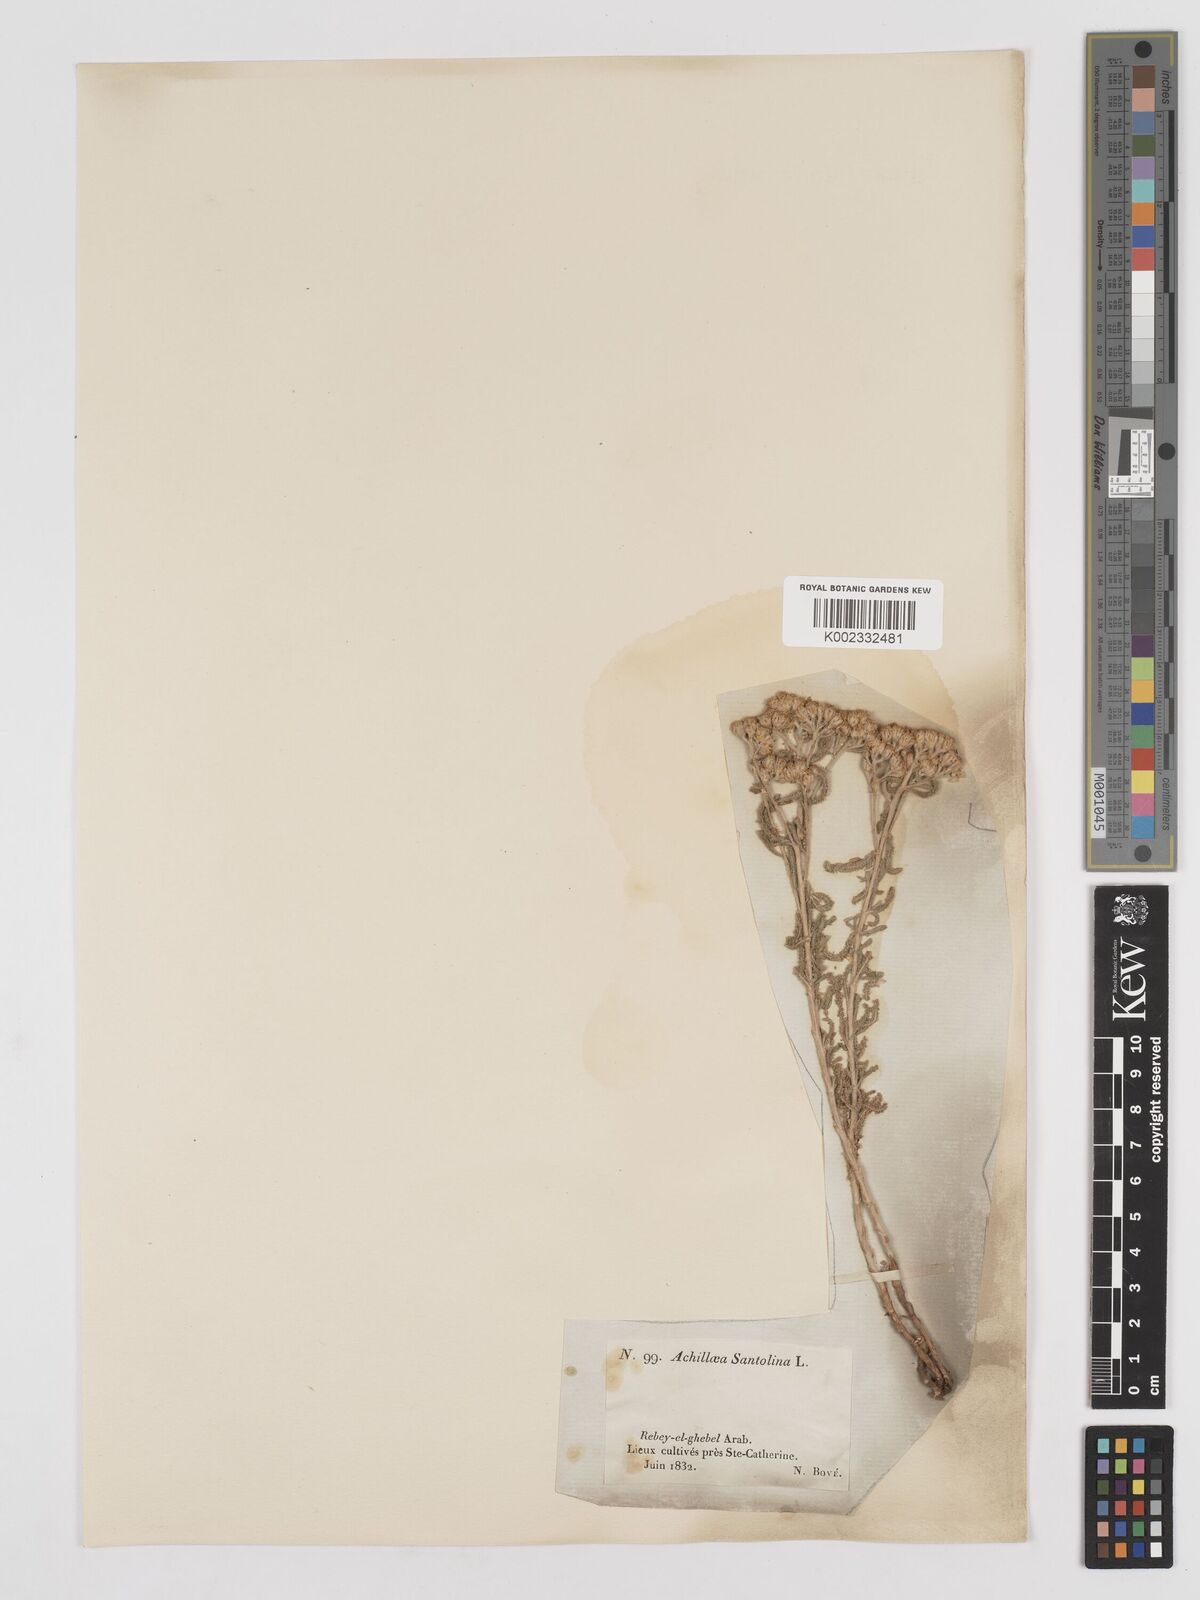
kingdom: Plantae
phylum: Tracheophyta
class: Magnoliopsida
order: Asterales
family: Asteraceae
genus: Achillea
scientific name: Achillea tenuifolia
